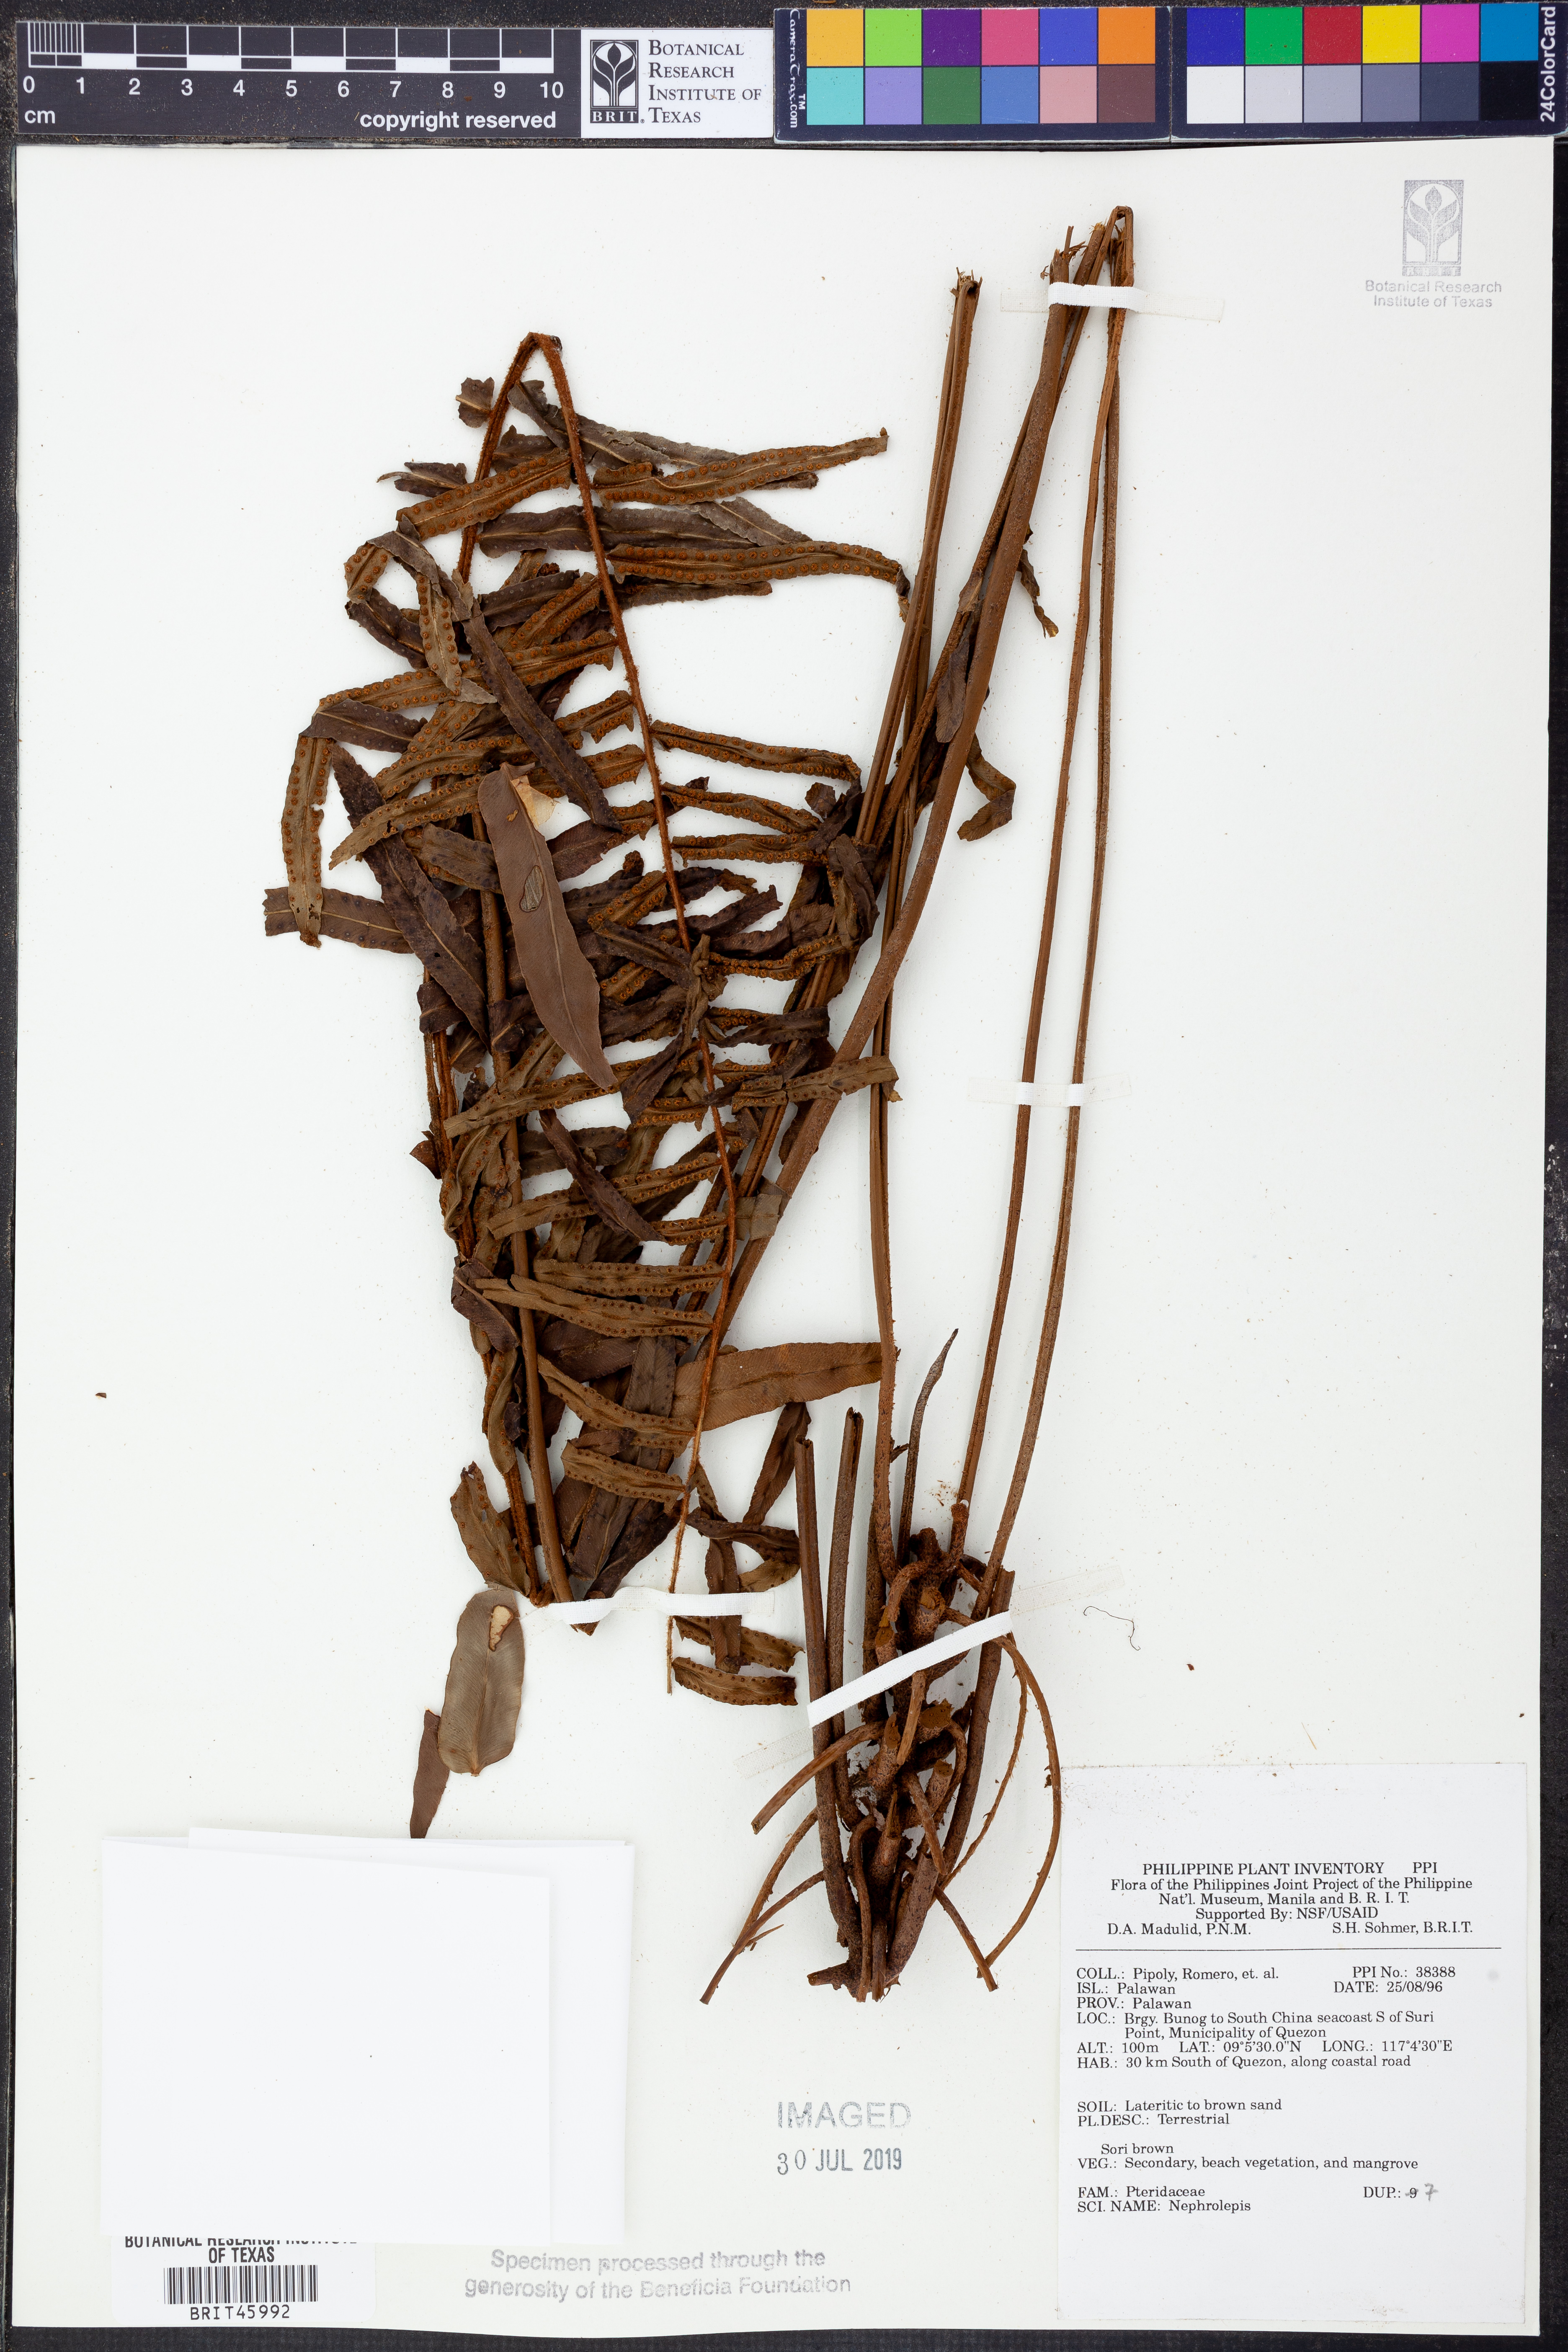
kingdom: Plantae
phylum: Tracheophyta
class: Polypodiopsida
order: Polypodiales
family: Nephrolepidaceae
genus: Nephrolepis
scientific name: Nephrolepis
